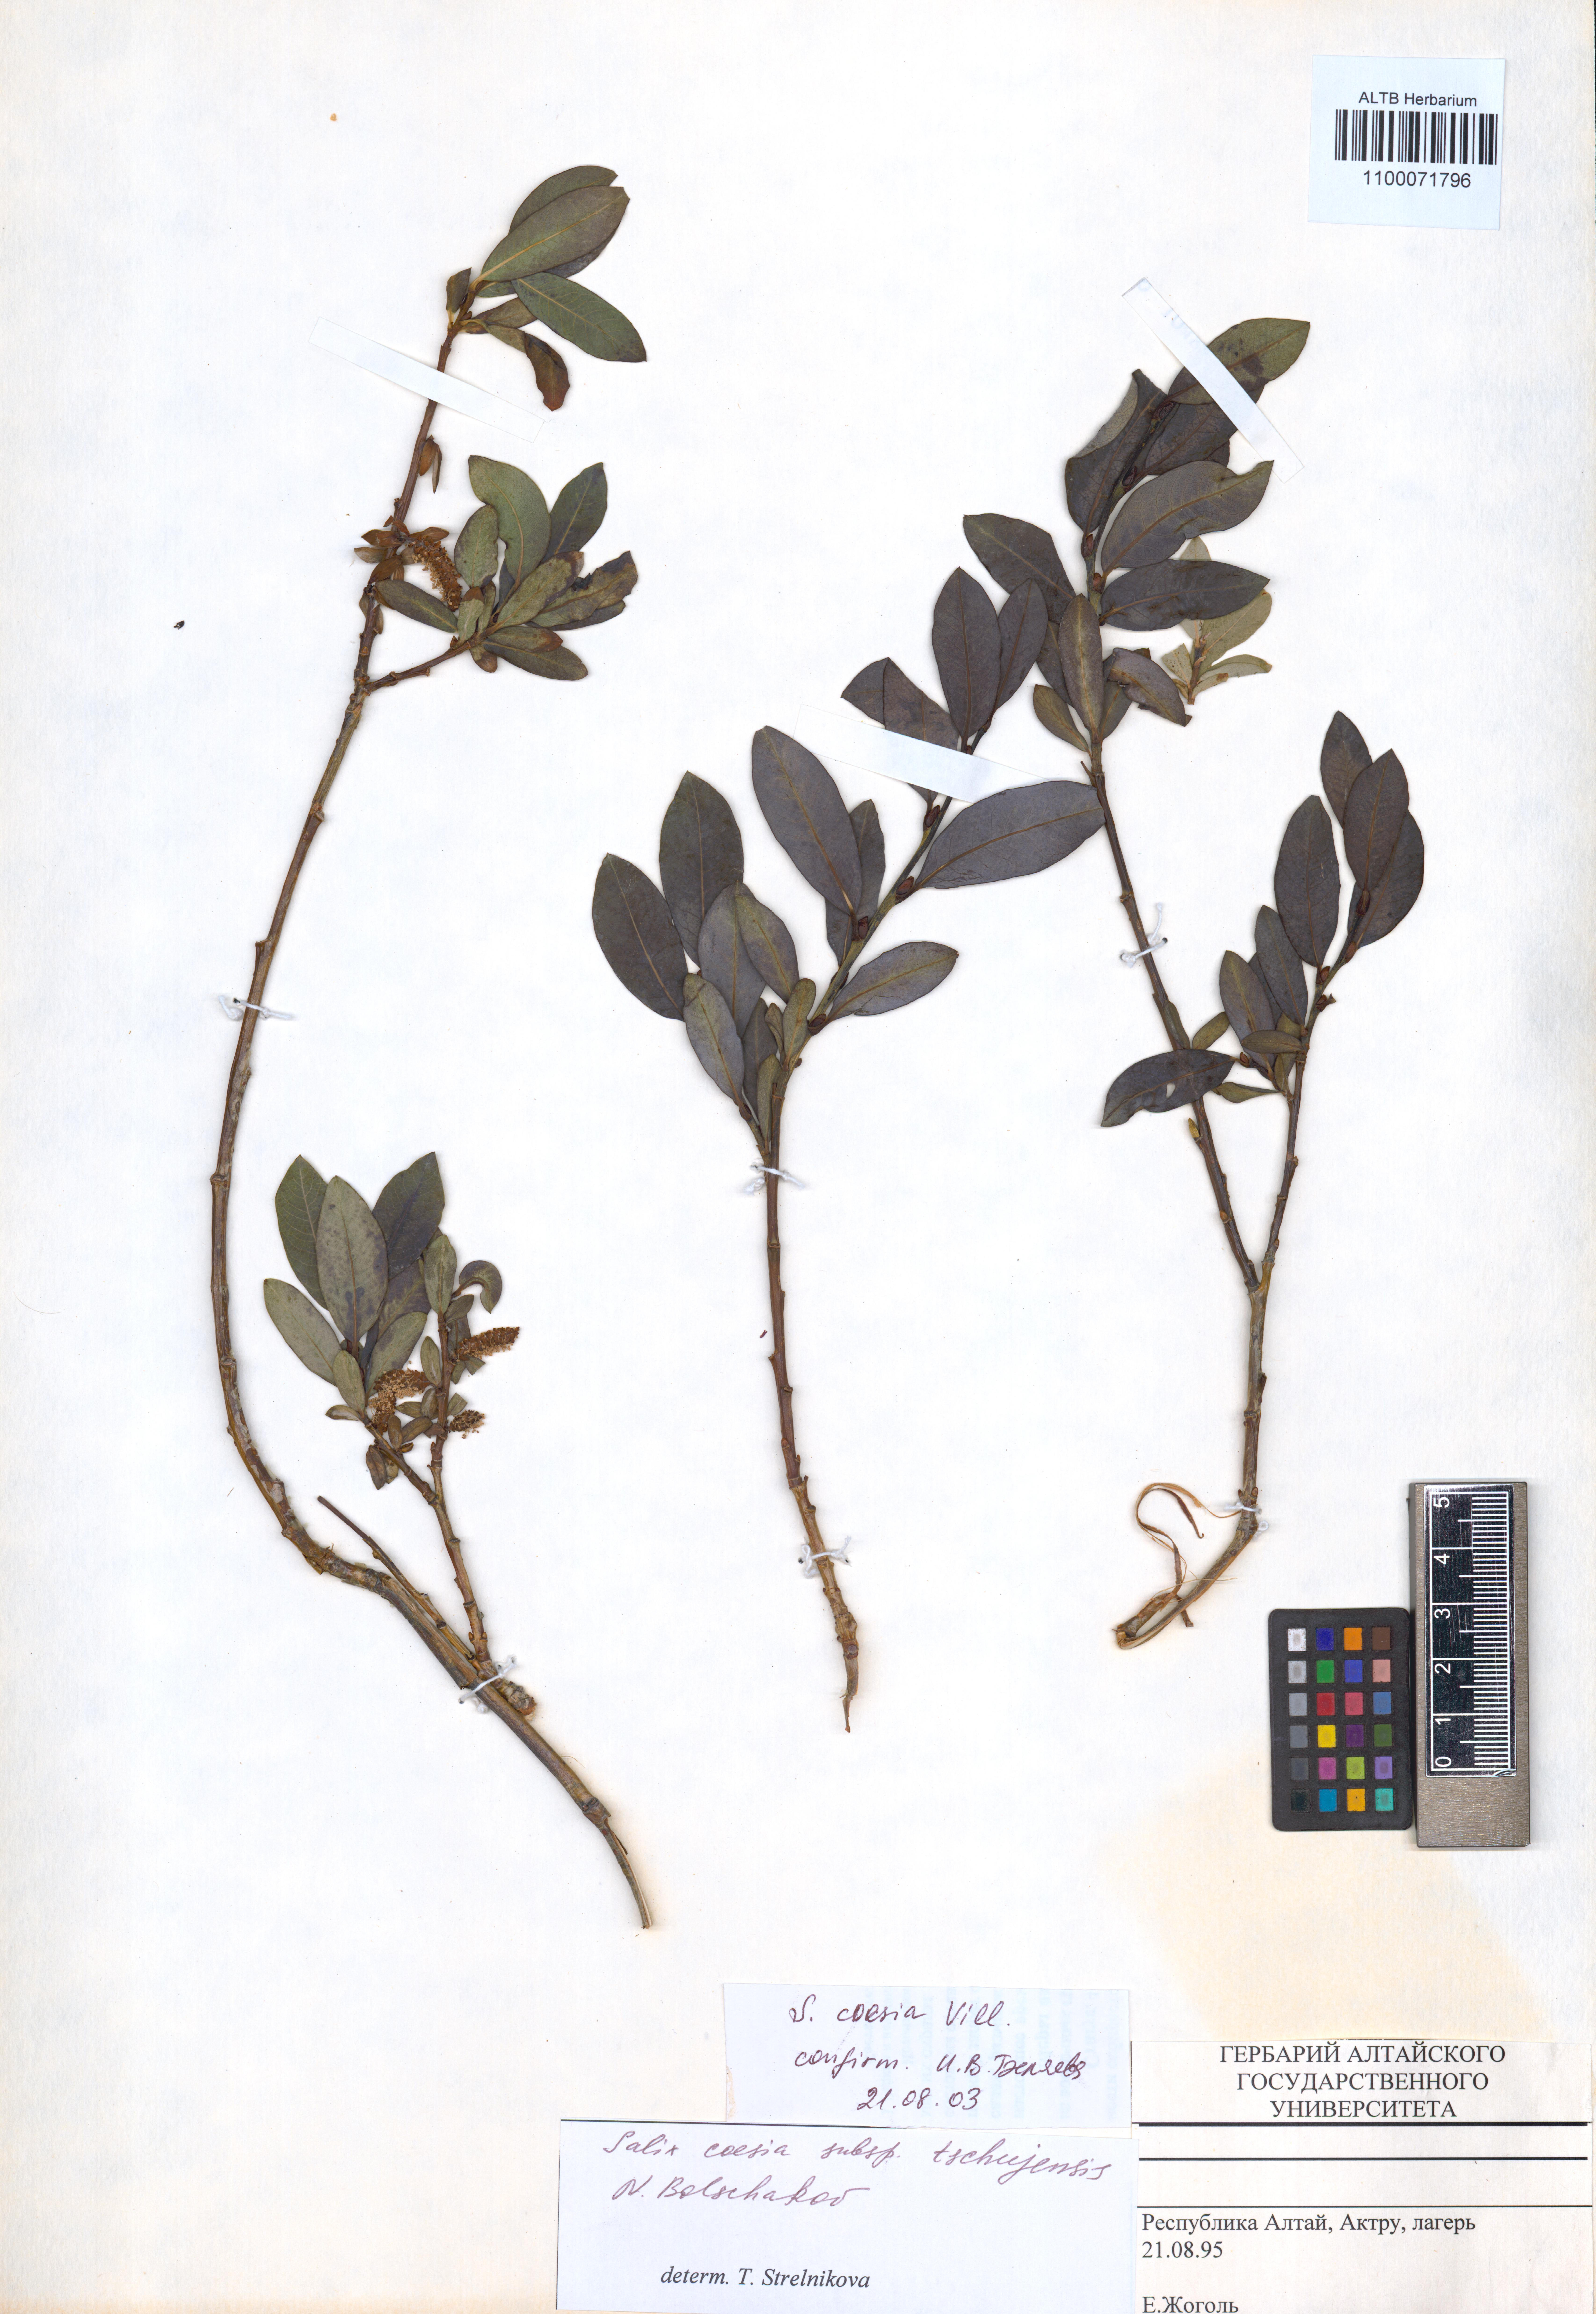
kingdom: Plantae
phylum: Tracheophyta
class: Magnoliopsida
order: Malpighiales
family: Salicaceae
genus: Salix
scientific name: Salix caesia
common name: Blue willow
